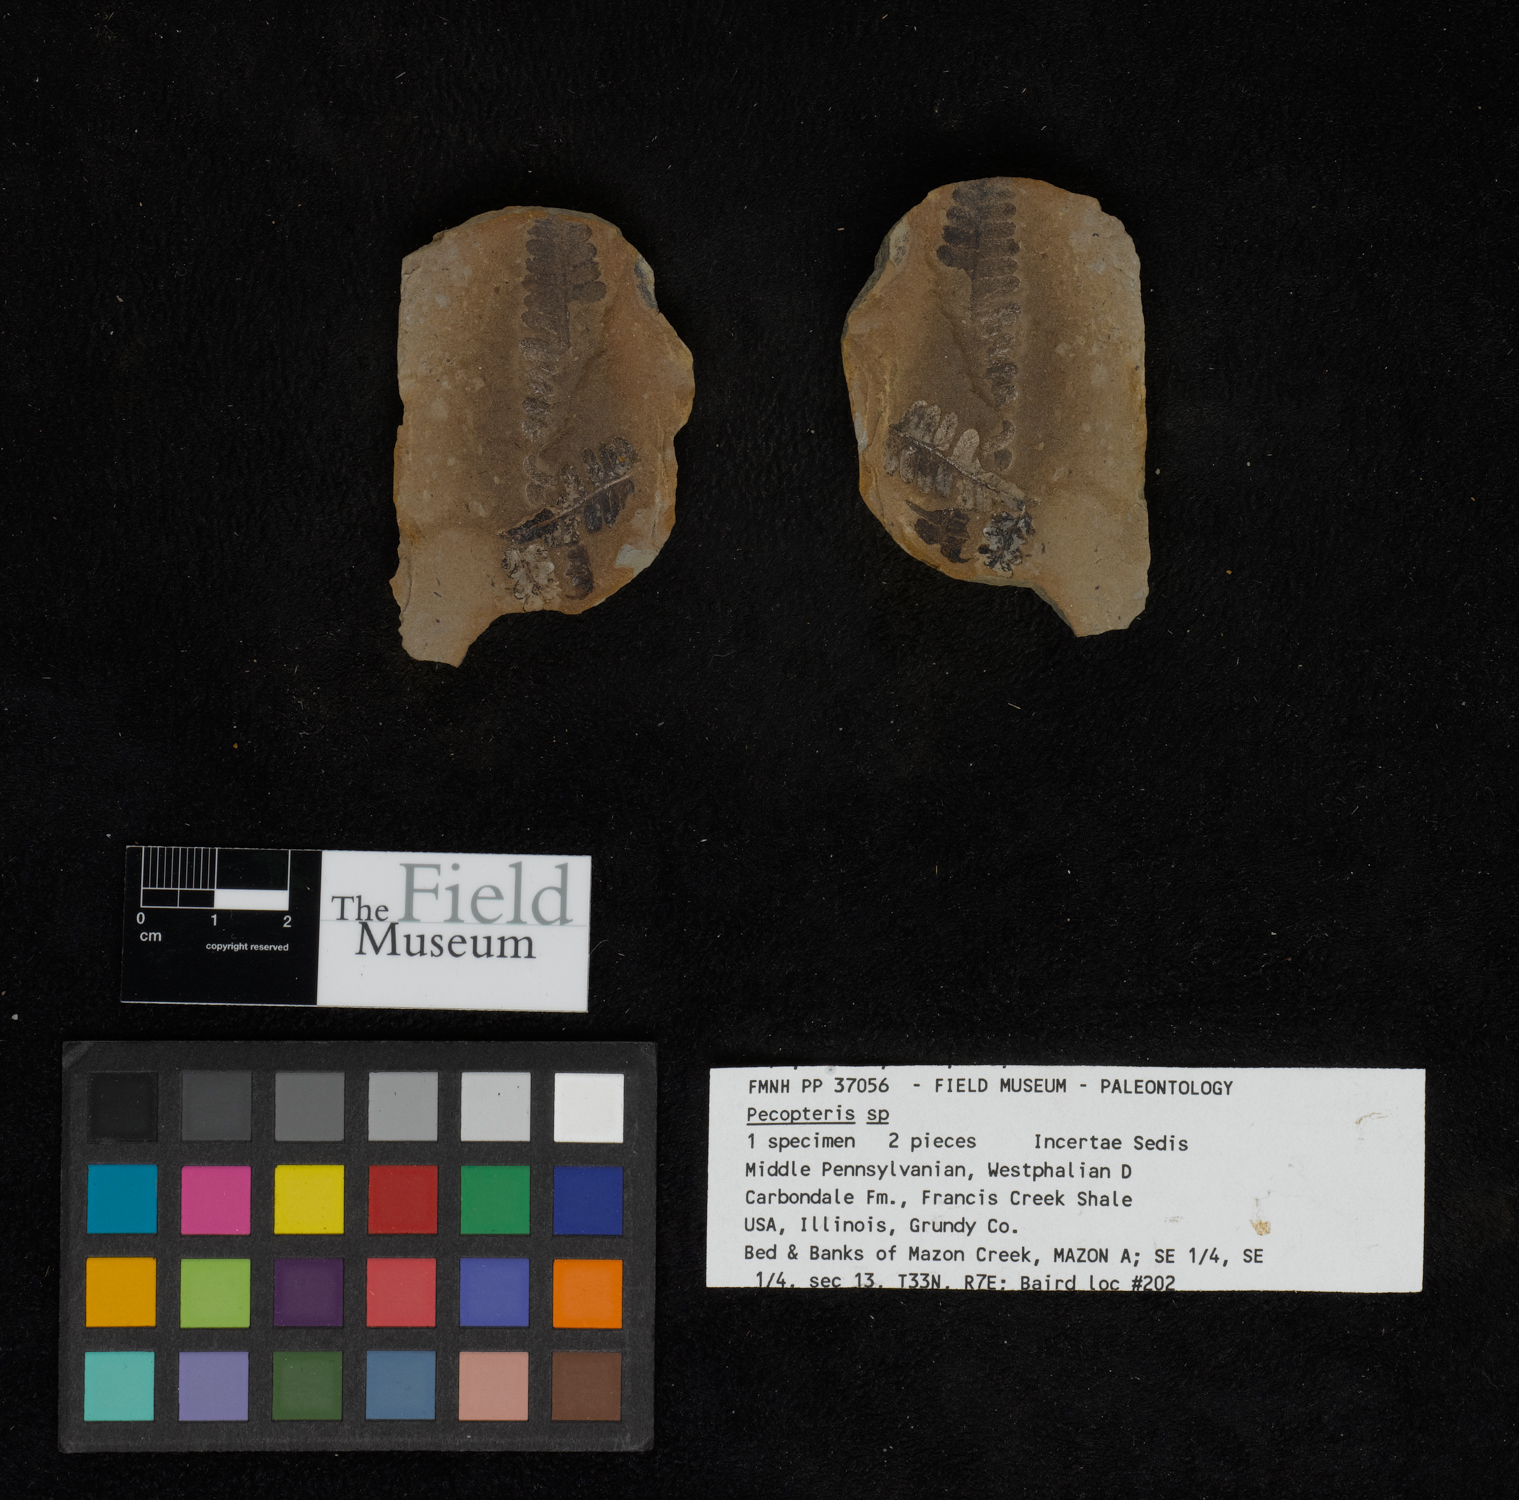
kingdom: Plantae
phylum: Tracheophyta
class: Polypodiopsida
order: Marattiales
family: Asterothecaceae
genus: Pecopteris
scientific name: Pecopteris
